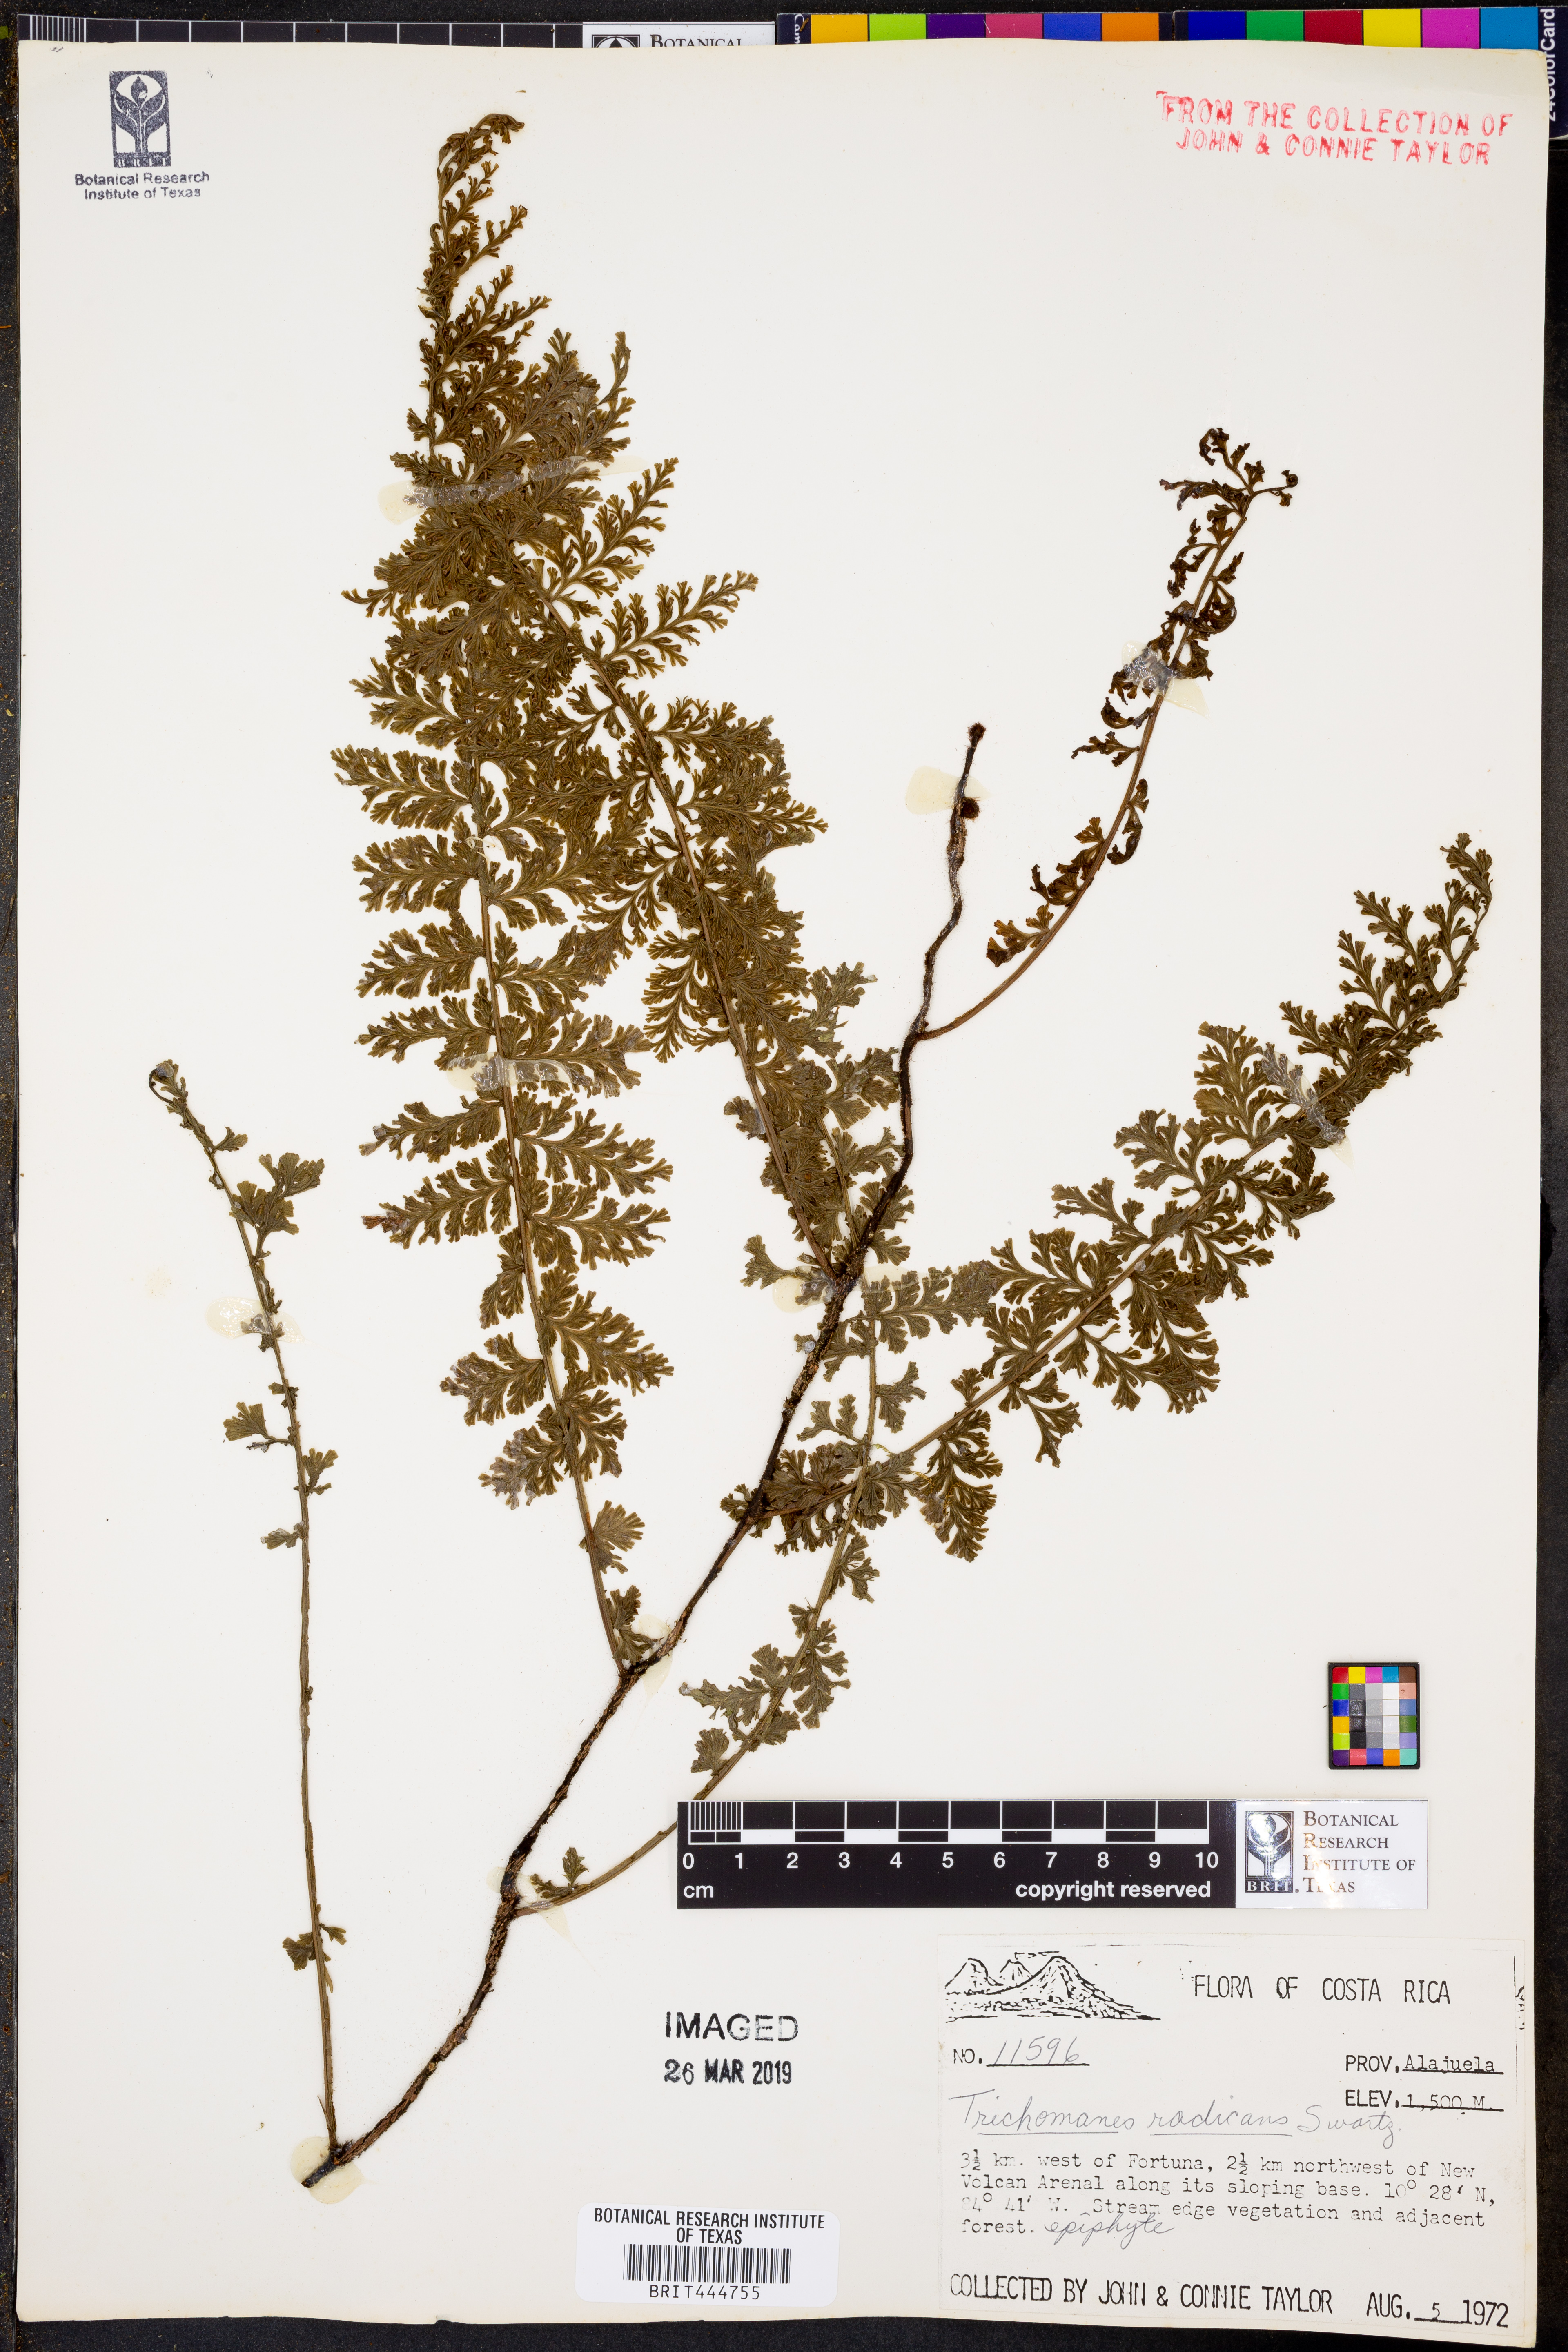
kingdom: Plantae
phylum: Tracheophyta
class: Polypodiopsida
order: Hymenophyllales
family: Hymenophyllaceae
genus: Vandenboschia
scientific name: Vandenboschia radicans
